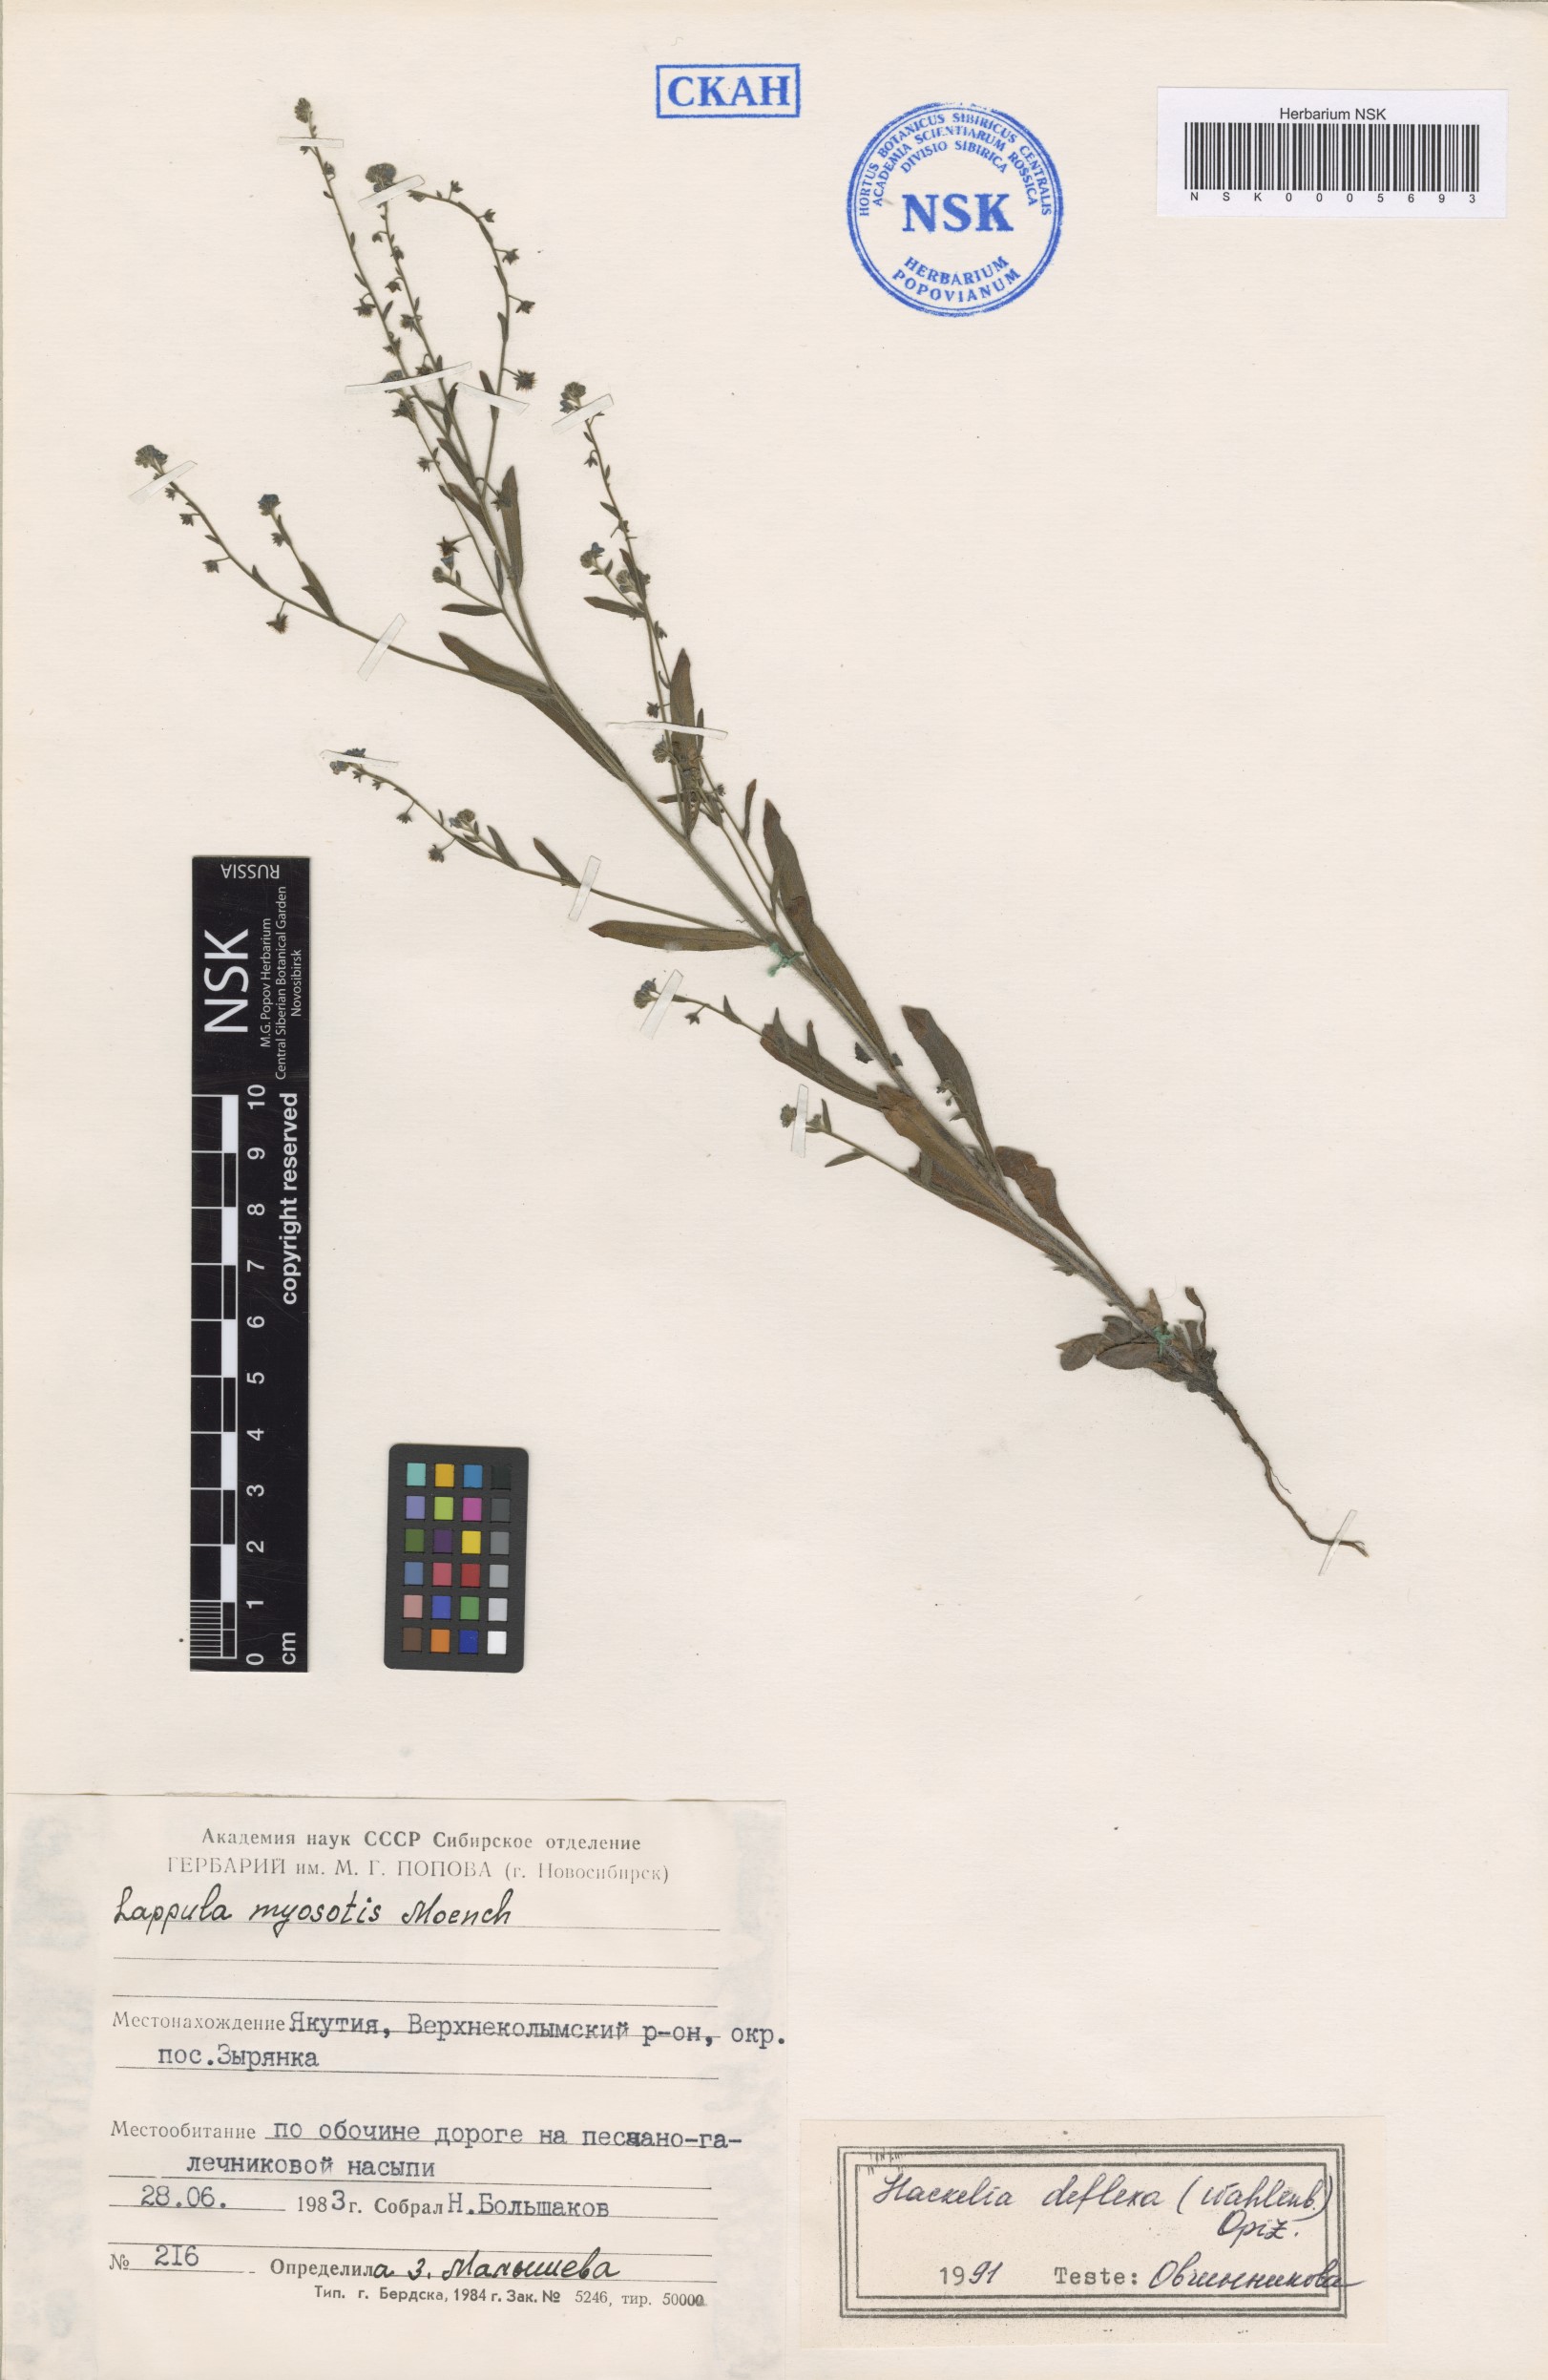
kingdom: Plantae
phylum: Tracheophyta
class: Magnoliopsida
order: Boraginales
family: Boraginaceae
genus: Hackelia
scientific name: Hackelia deflexa
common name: Nodding stickseed
